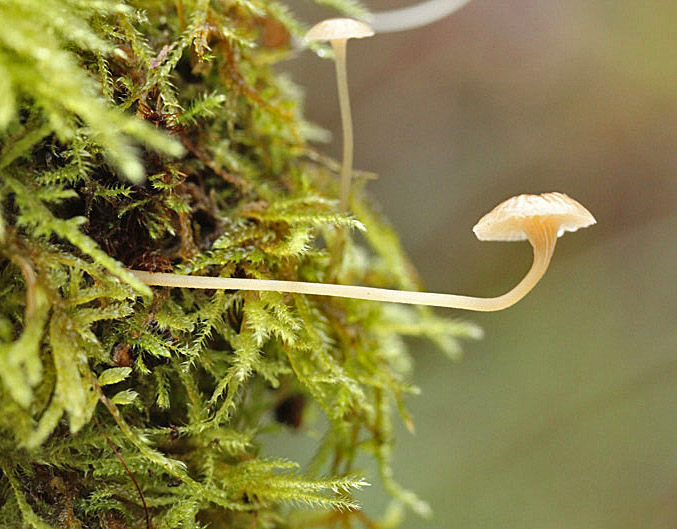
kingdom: Fungi
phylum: Basidiomycota
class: Agaricomycetes
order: Hymenochaetales
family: Rickenellaceae
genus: Rickenella
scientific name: Rickenella fibula
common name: orange mosnavlehat
